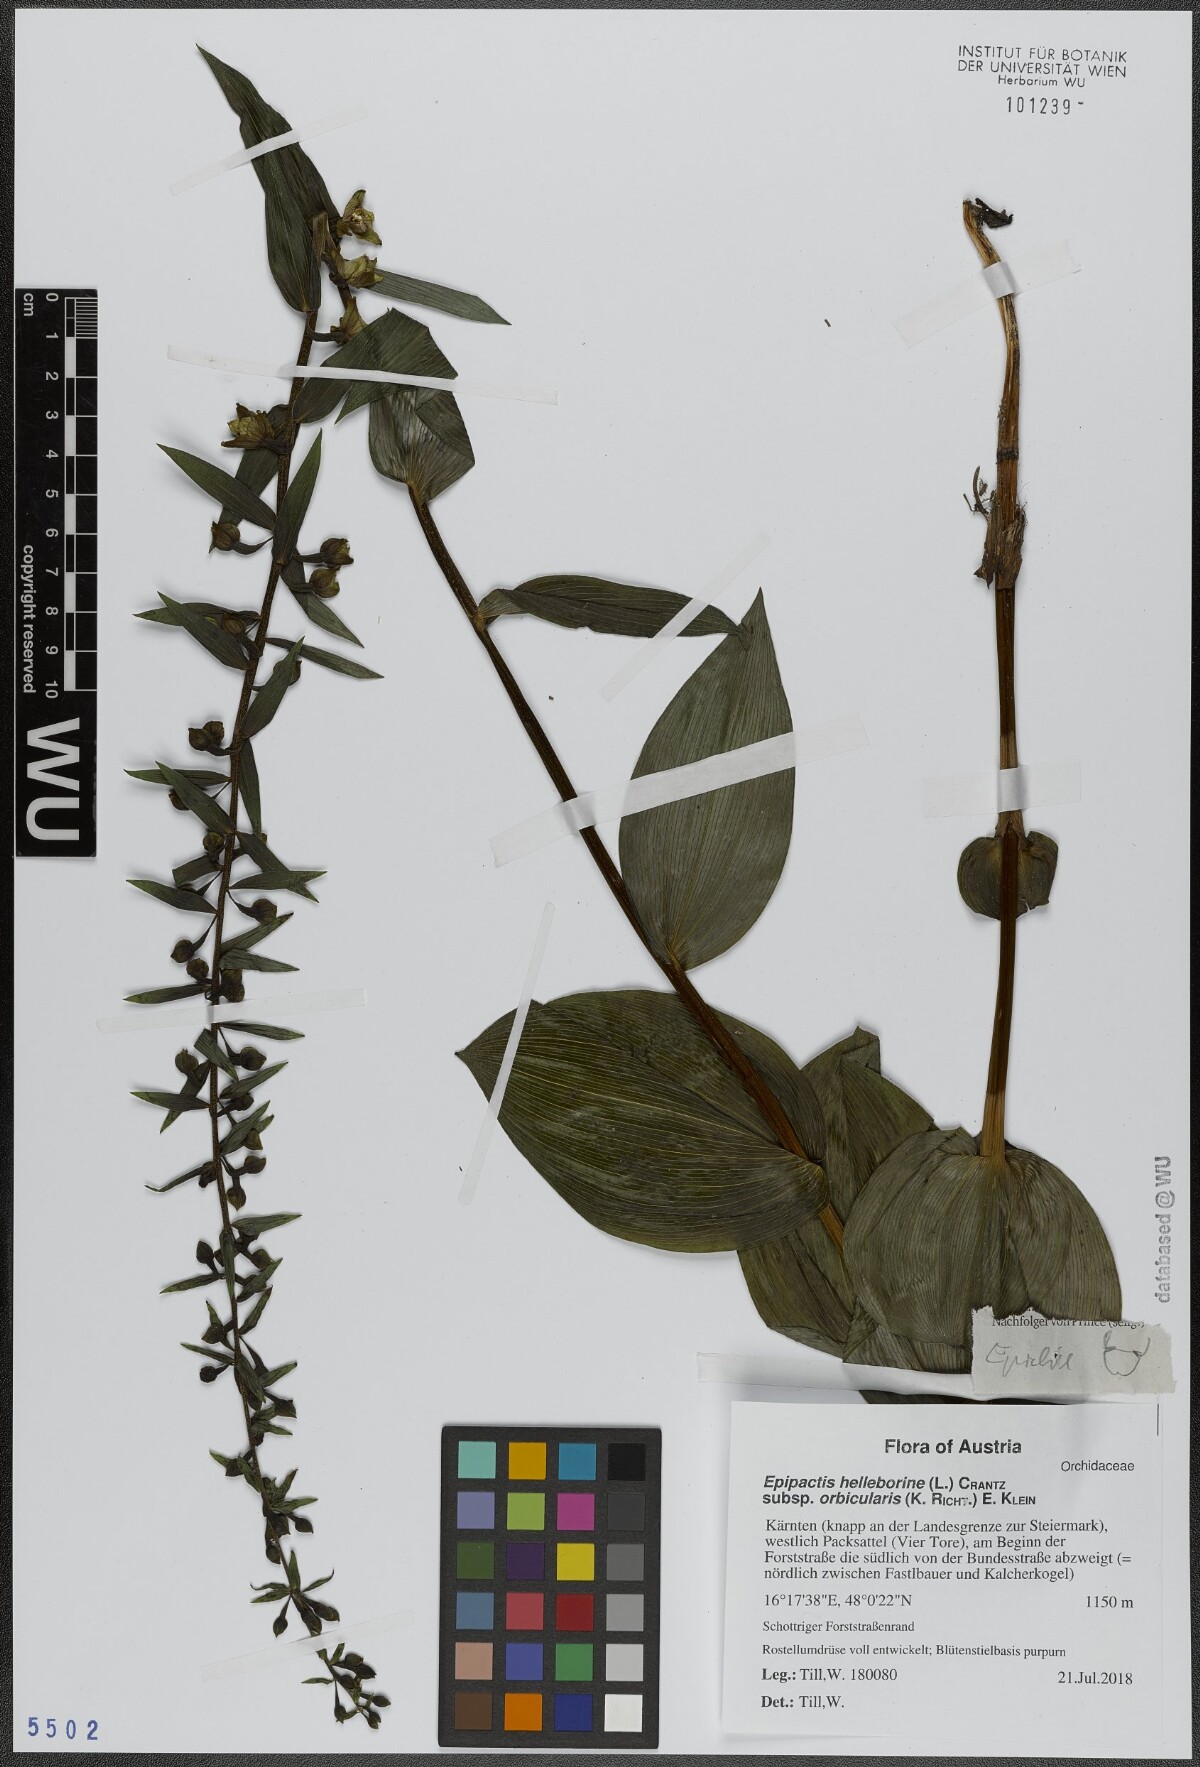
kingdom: Plantae
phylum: Tracheophyta
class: Liliopsida
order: Asparagales
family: Orchidaceae
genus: Epipactis
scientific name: Epipactis helleborine
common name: Broad-leaved helleborine
